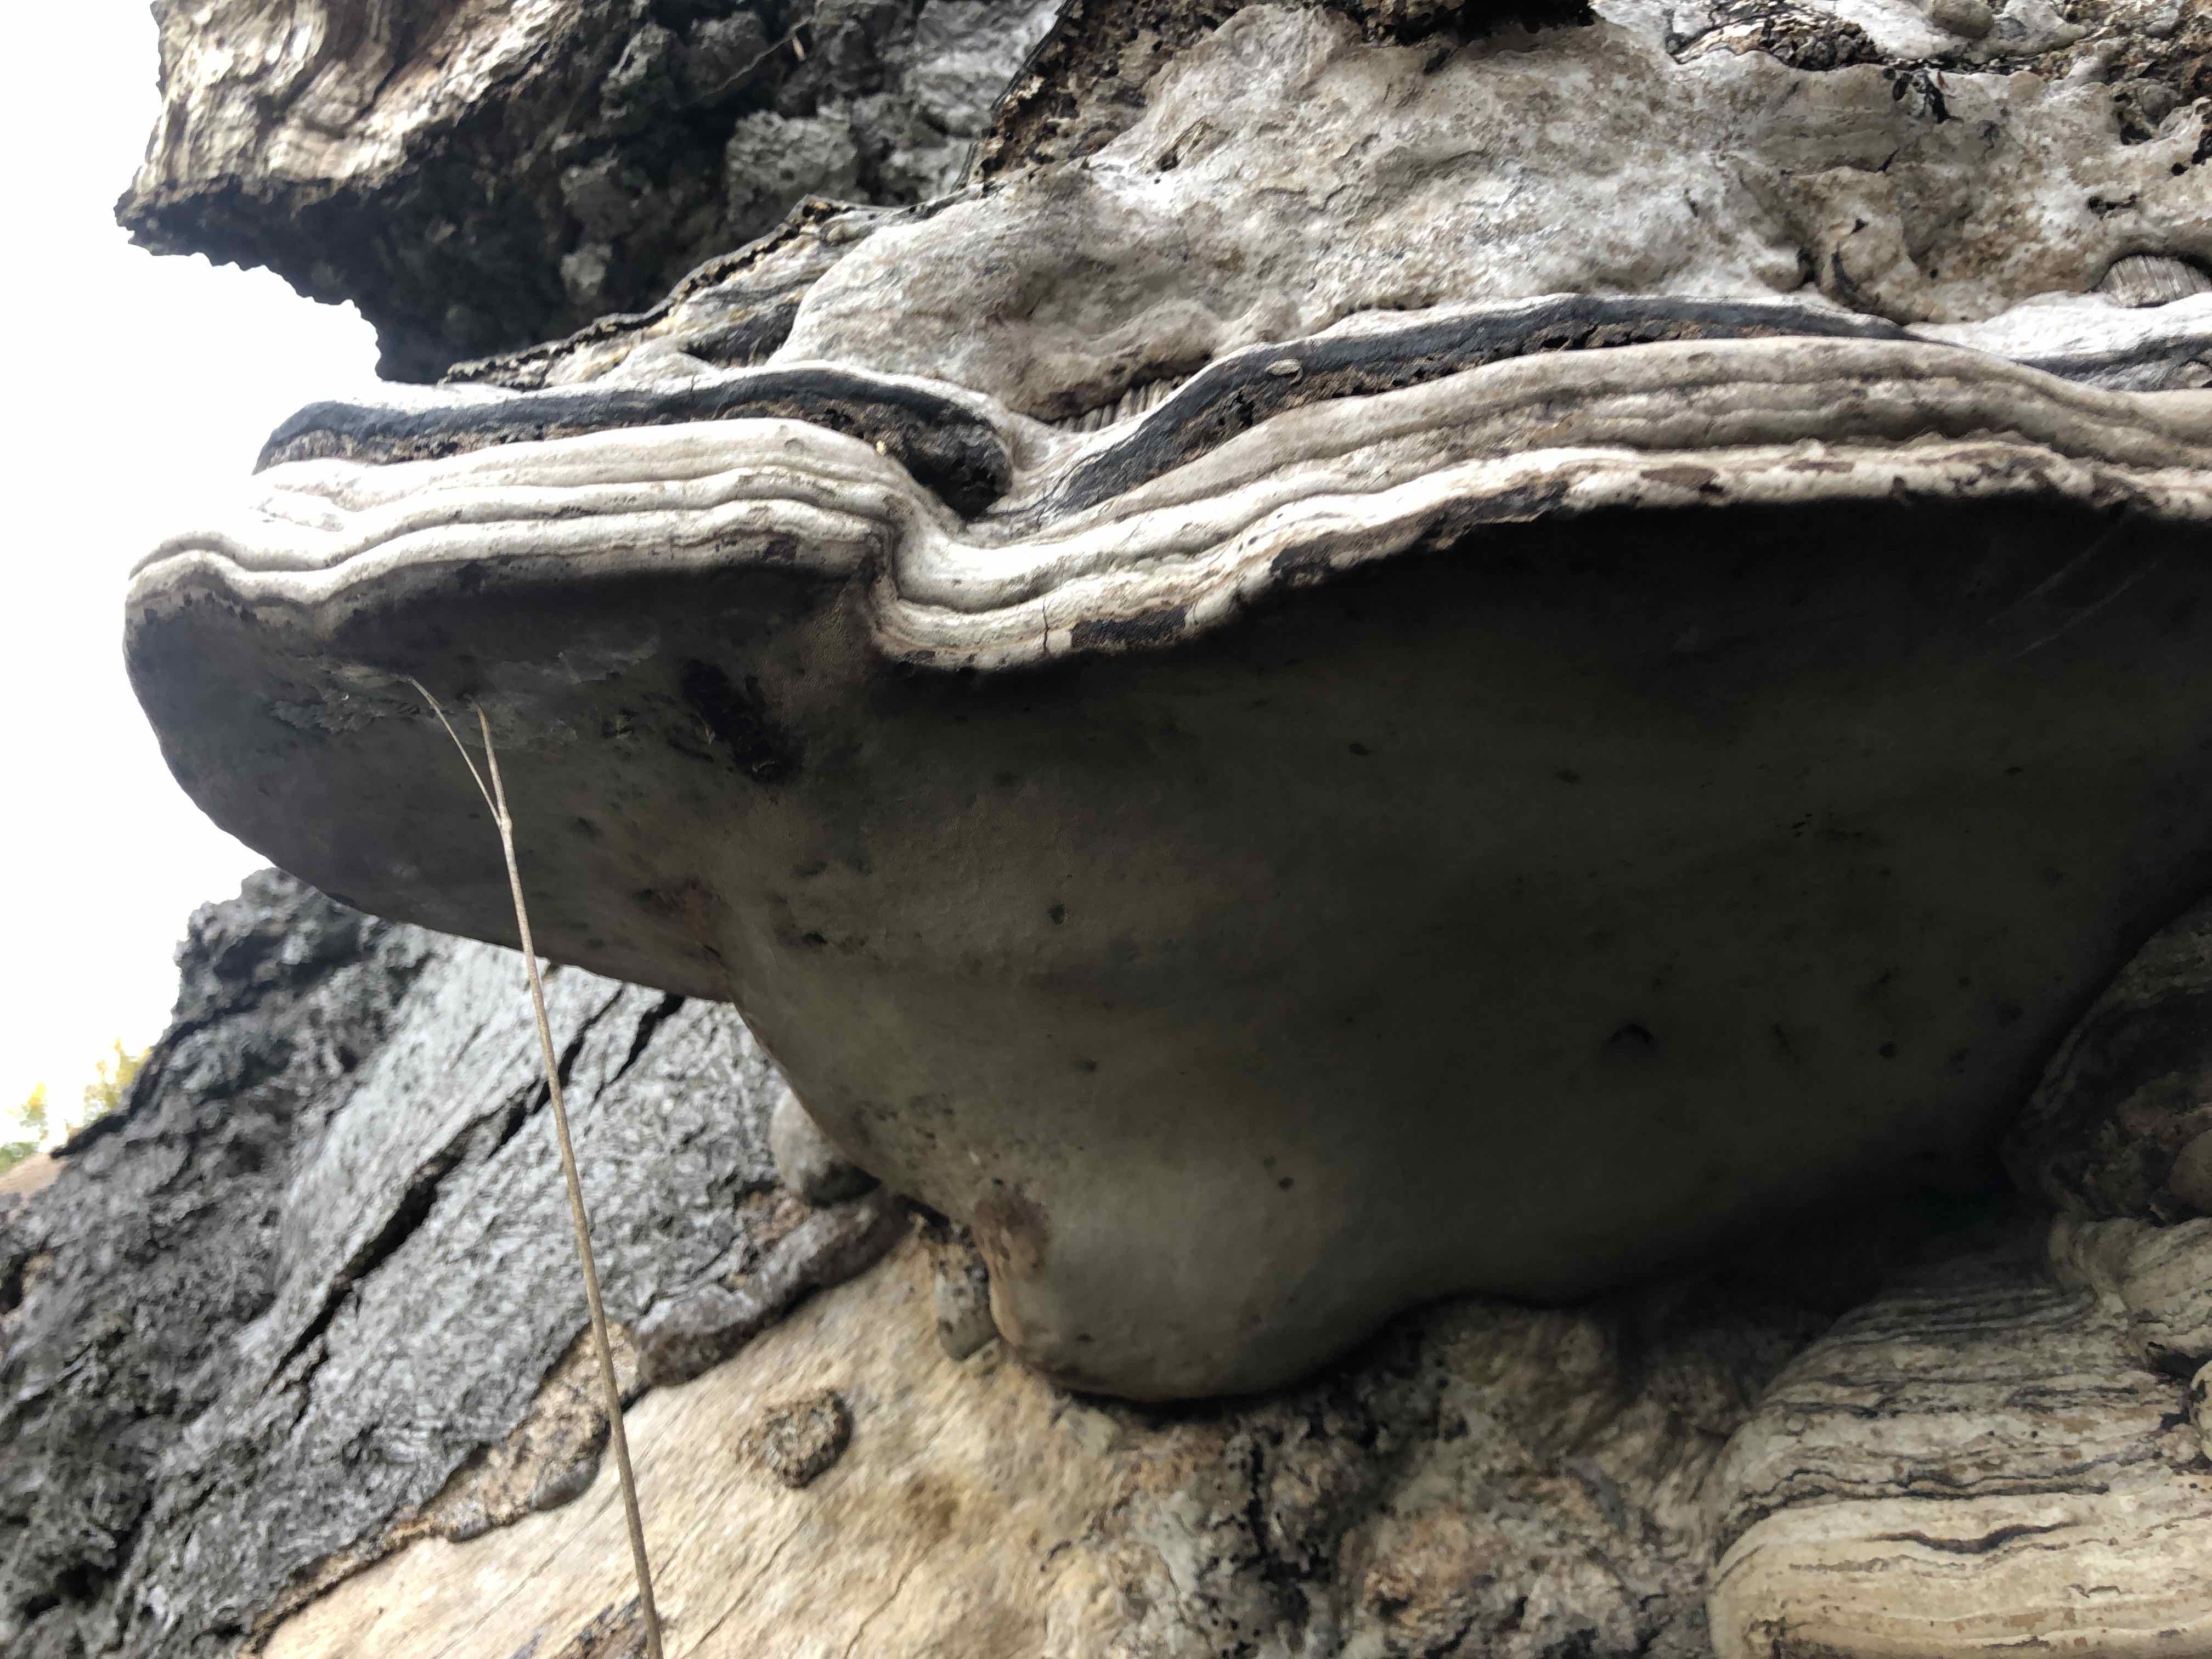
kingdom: Fungi
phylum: Basidiomycota
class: Agaricomycetes
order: Polyporales
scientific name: Polyporales
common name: poresvampordenen
